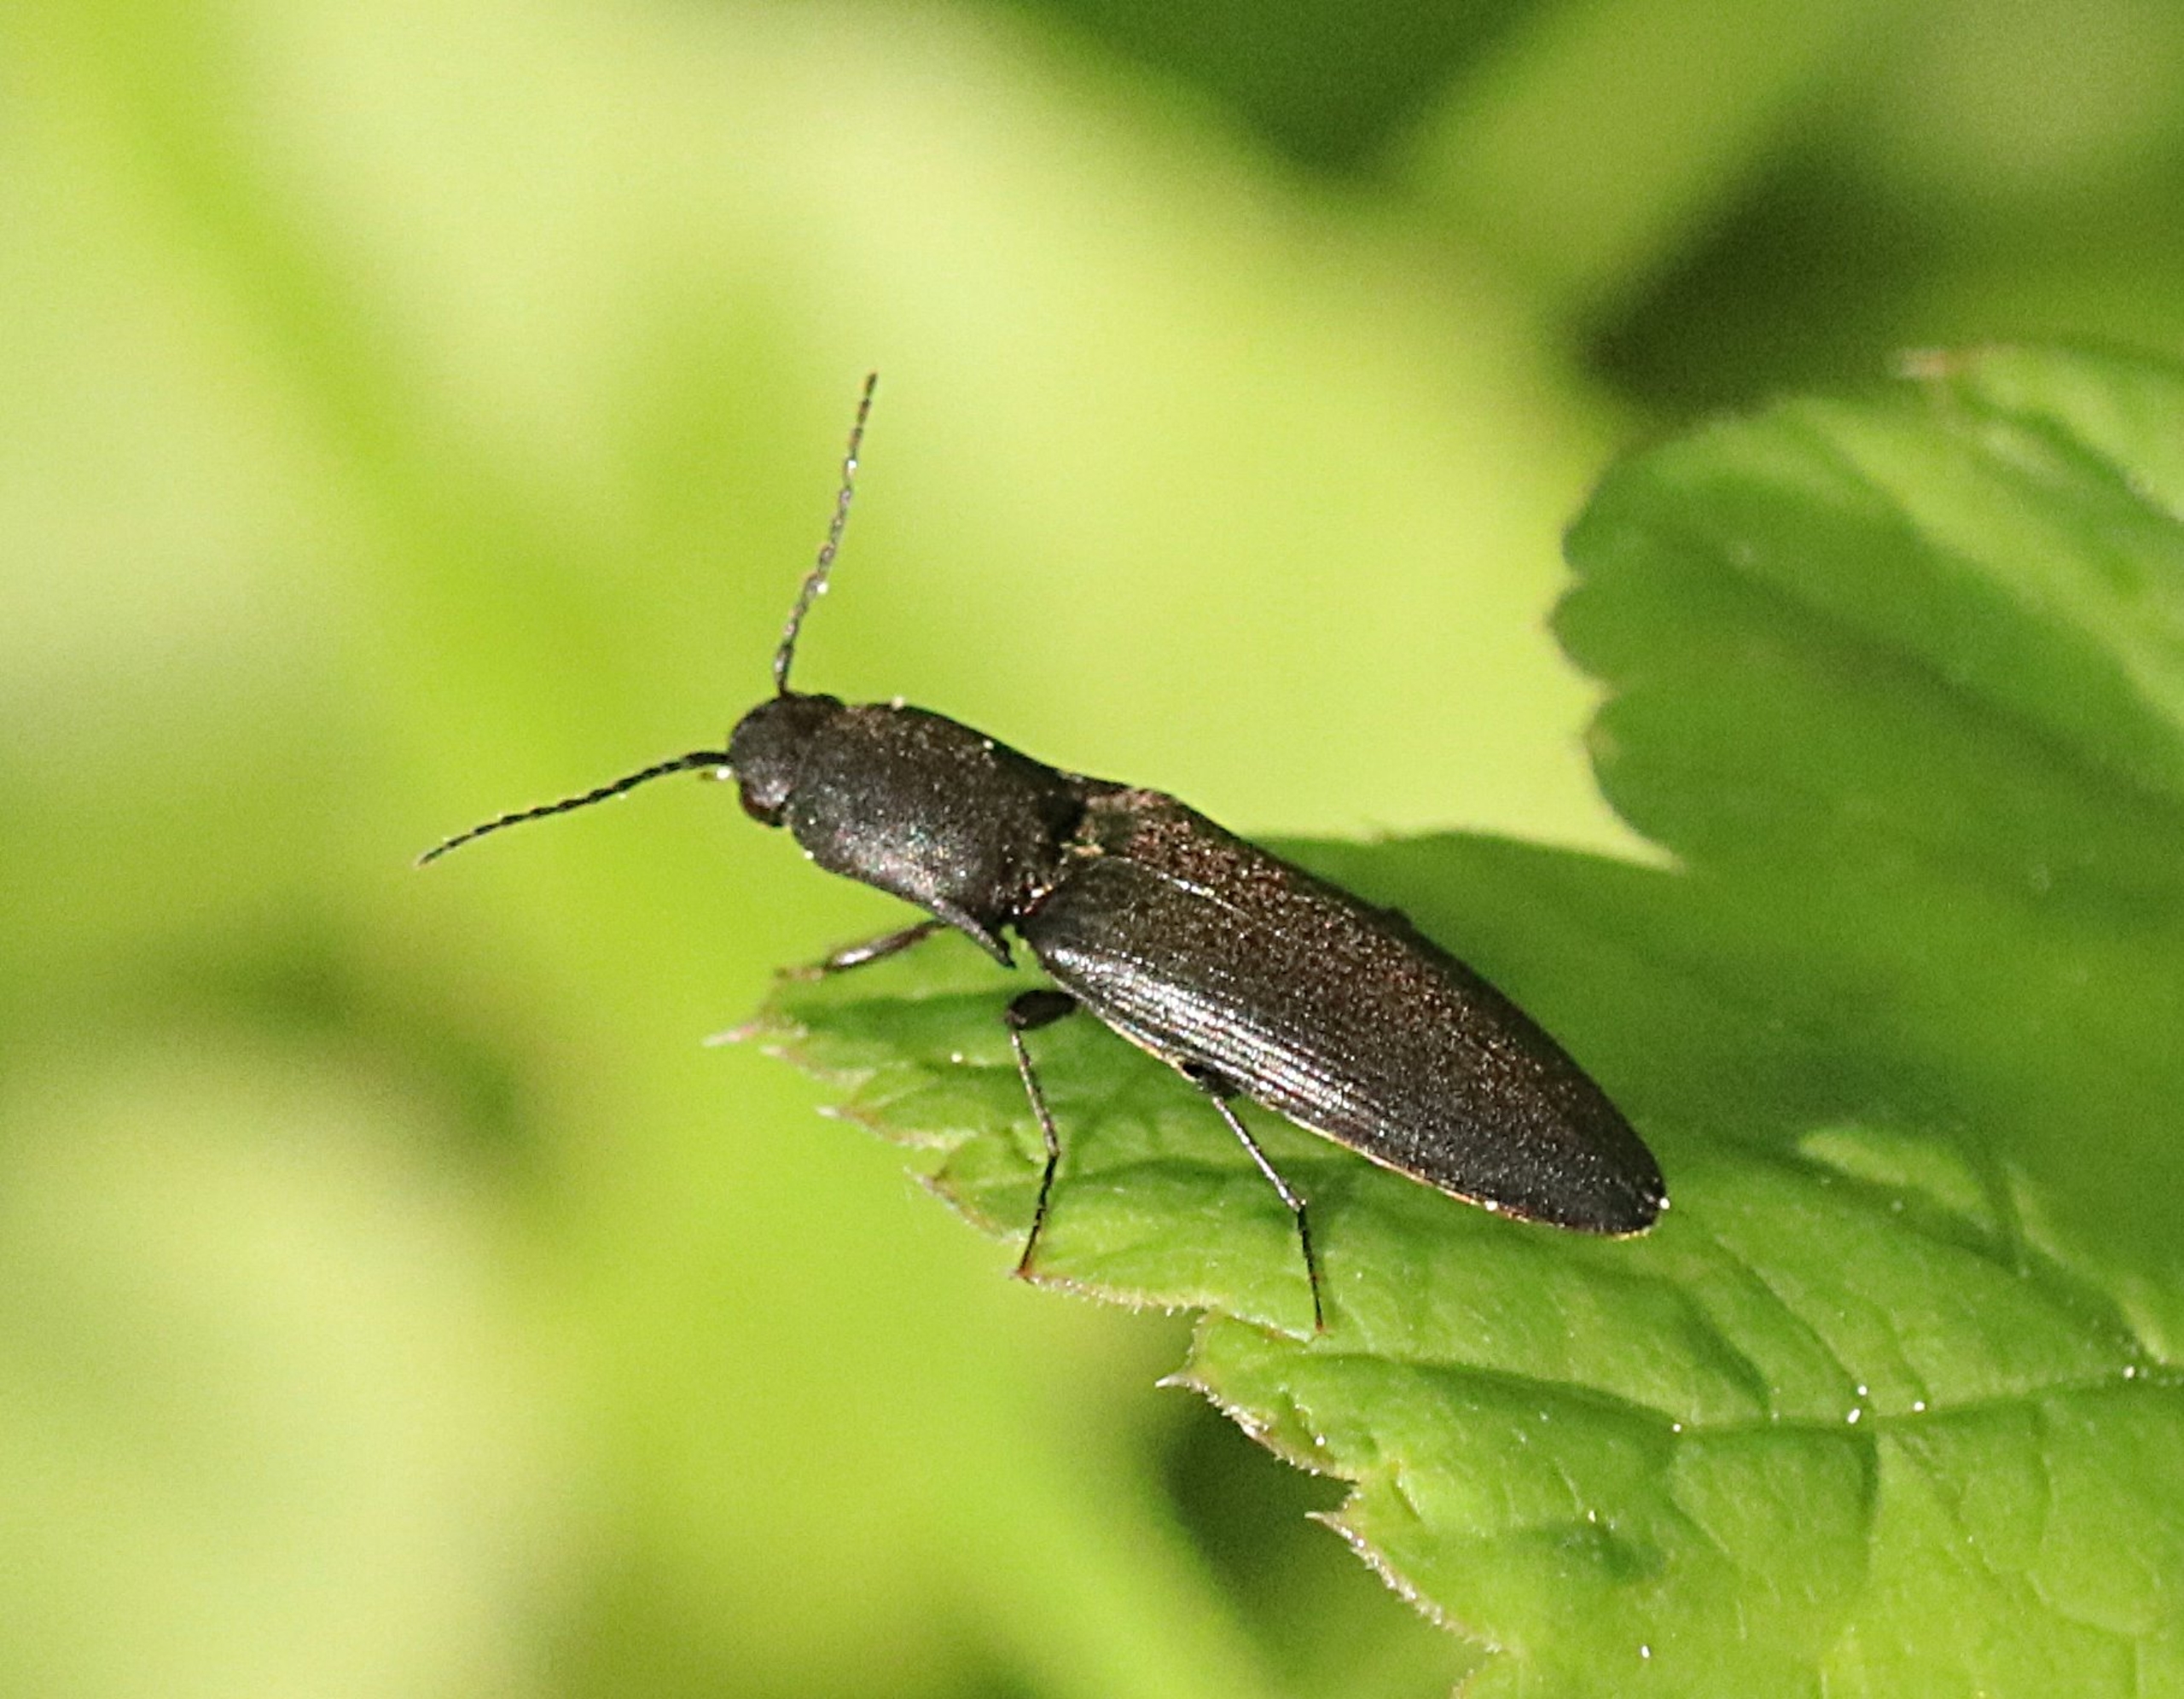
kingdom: Animalia
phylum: Arthropoda
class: Insecta
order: Coleoptera
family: Elateridae
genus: Ectinus
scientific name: Ectinus aterrimus
